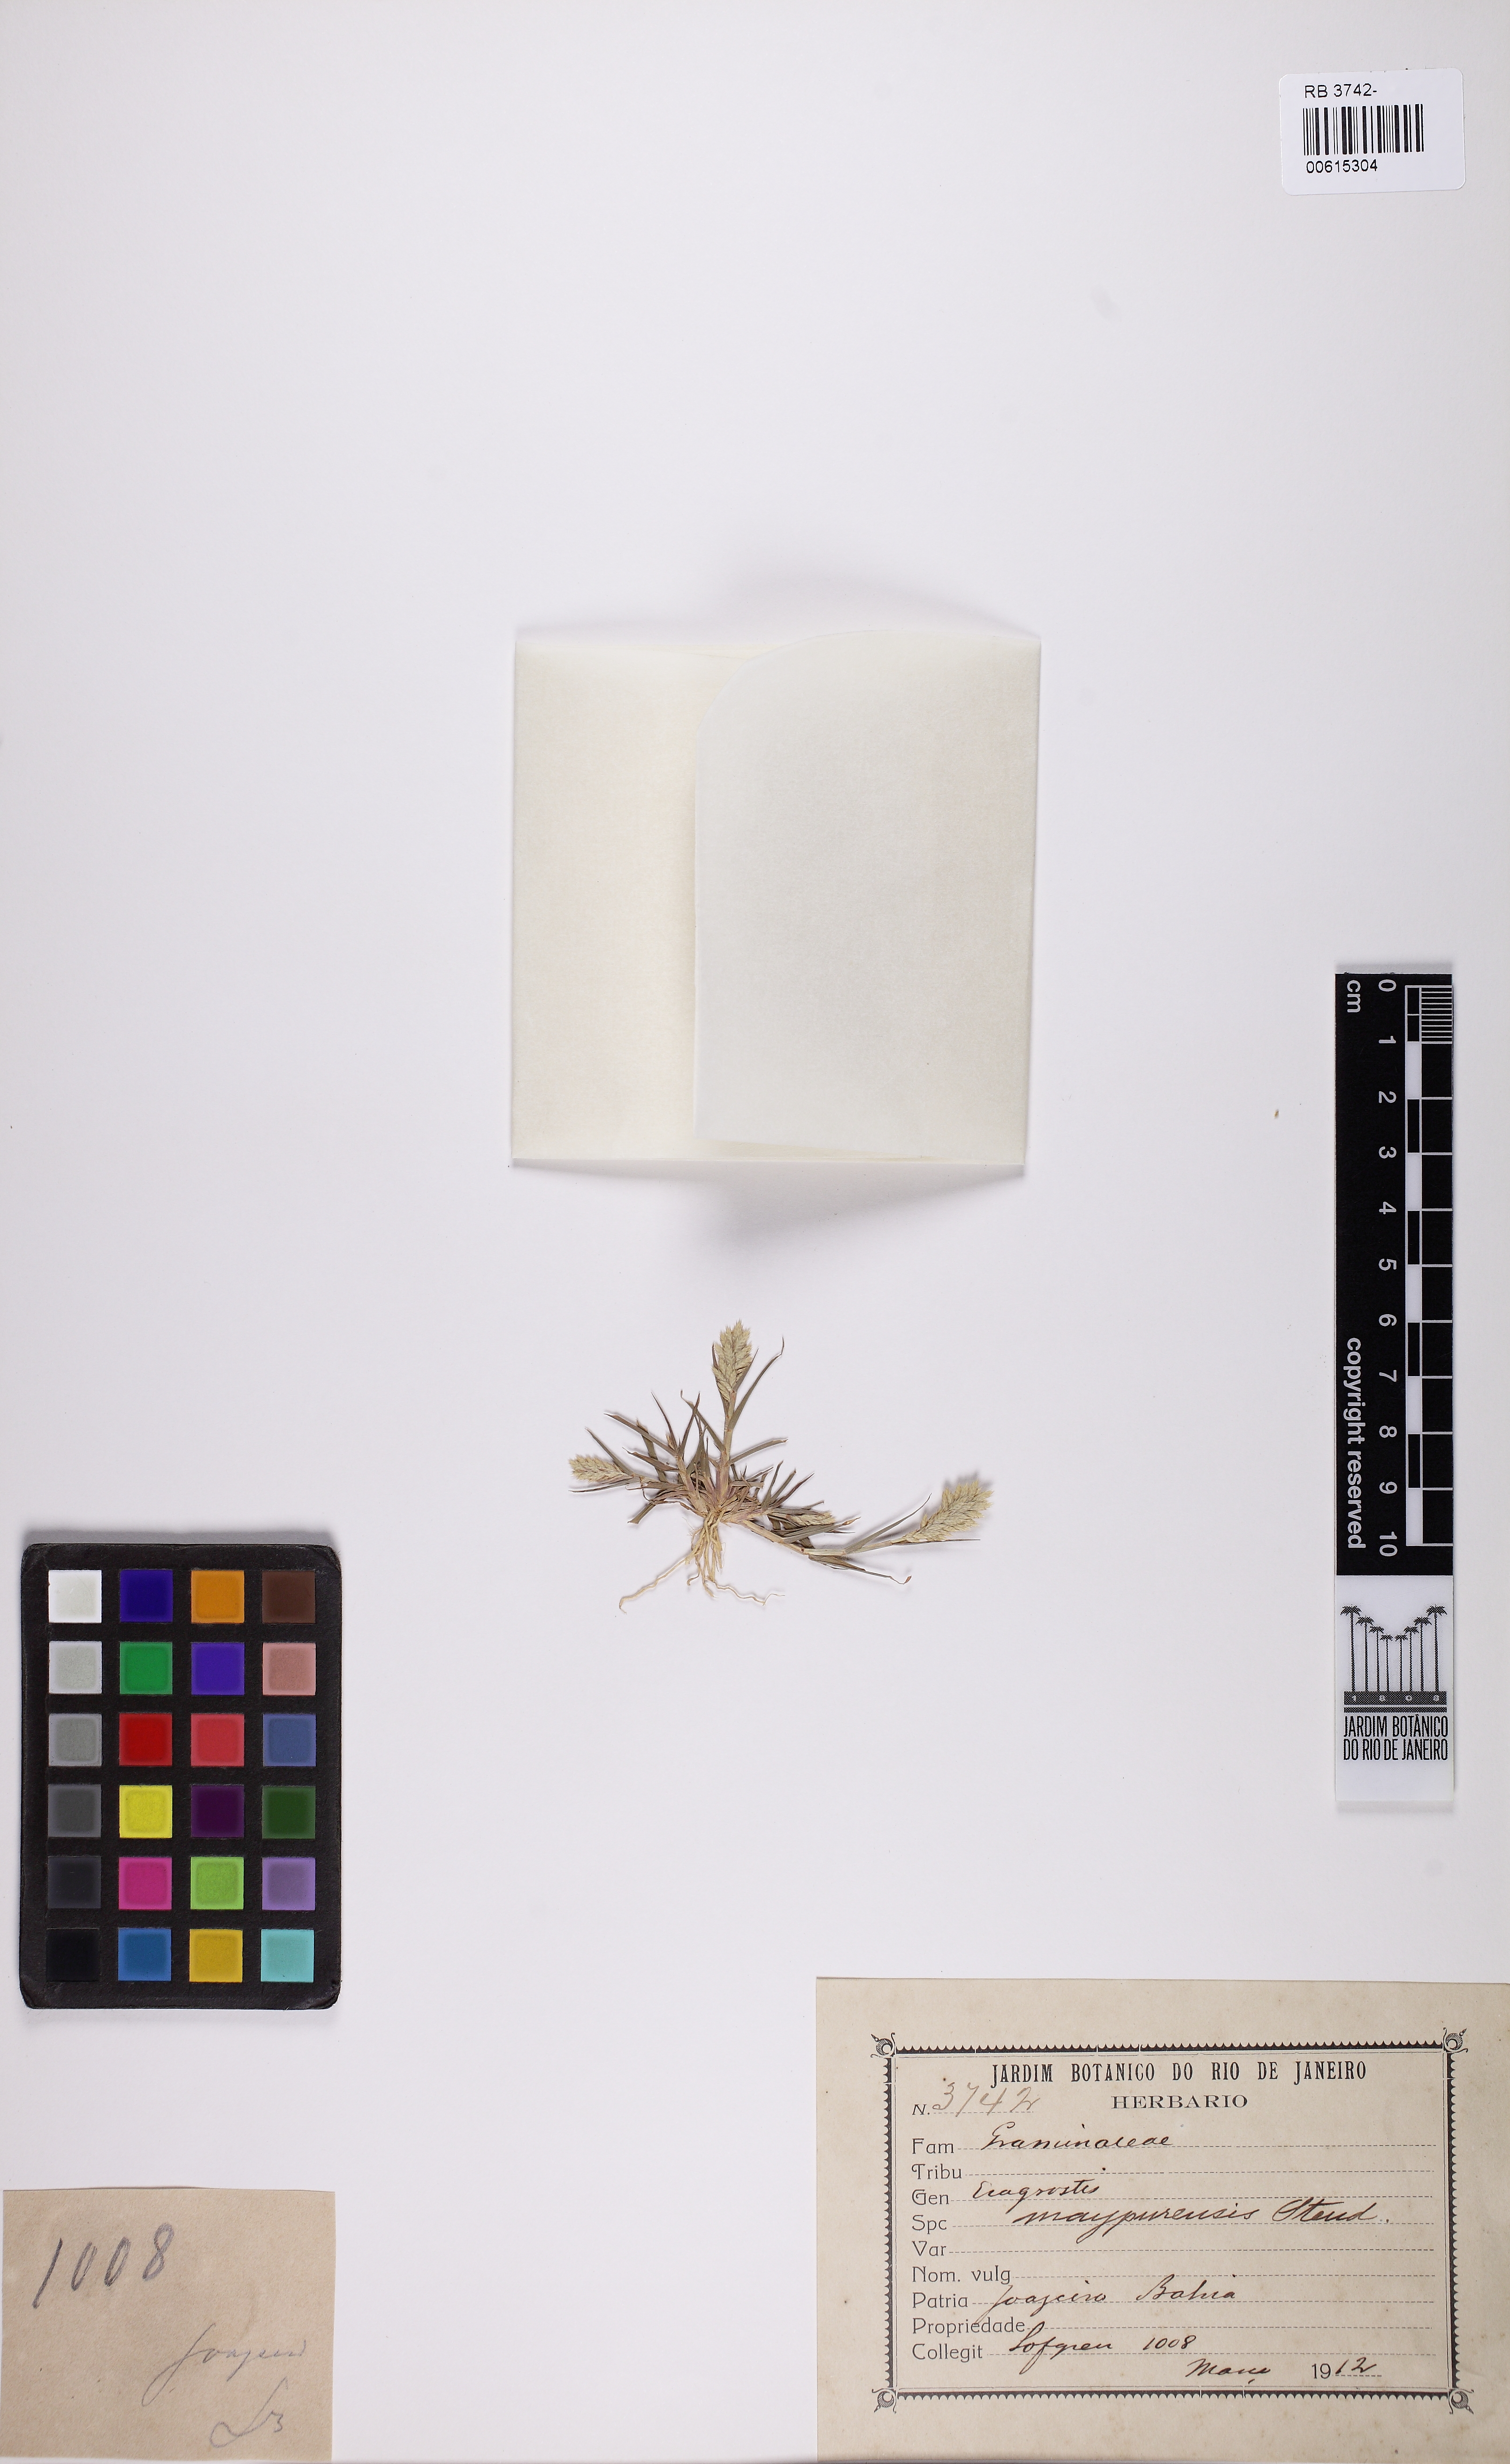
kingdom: Plantae
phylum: Tracheophyta
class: Liliopsida
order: Poales
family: Poaceae
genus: Eragrostis
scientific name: Eragrostis maypurensis
